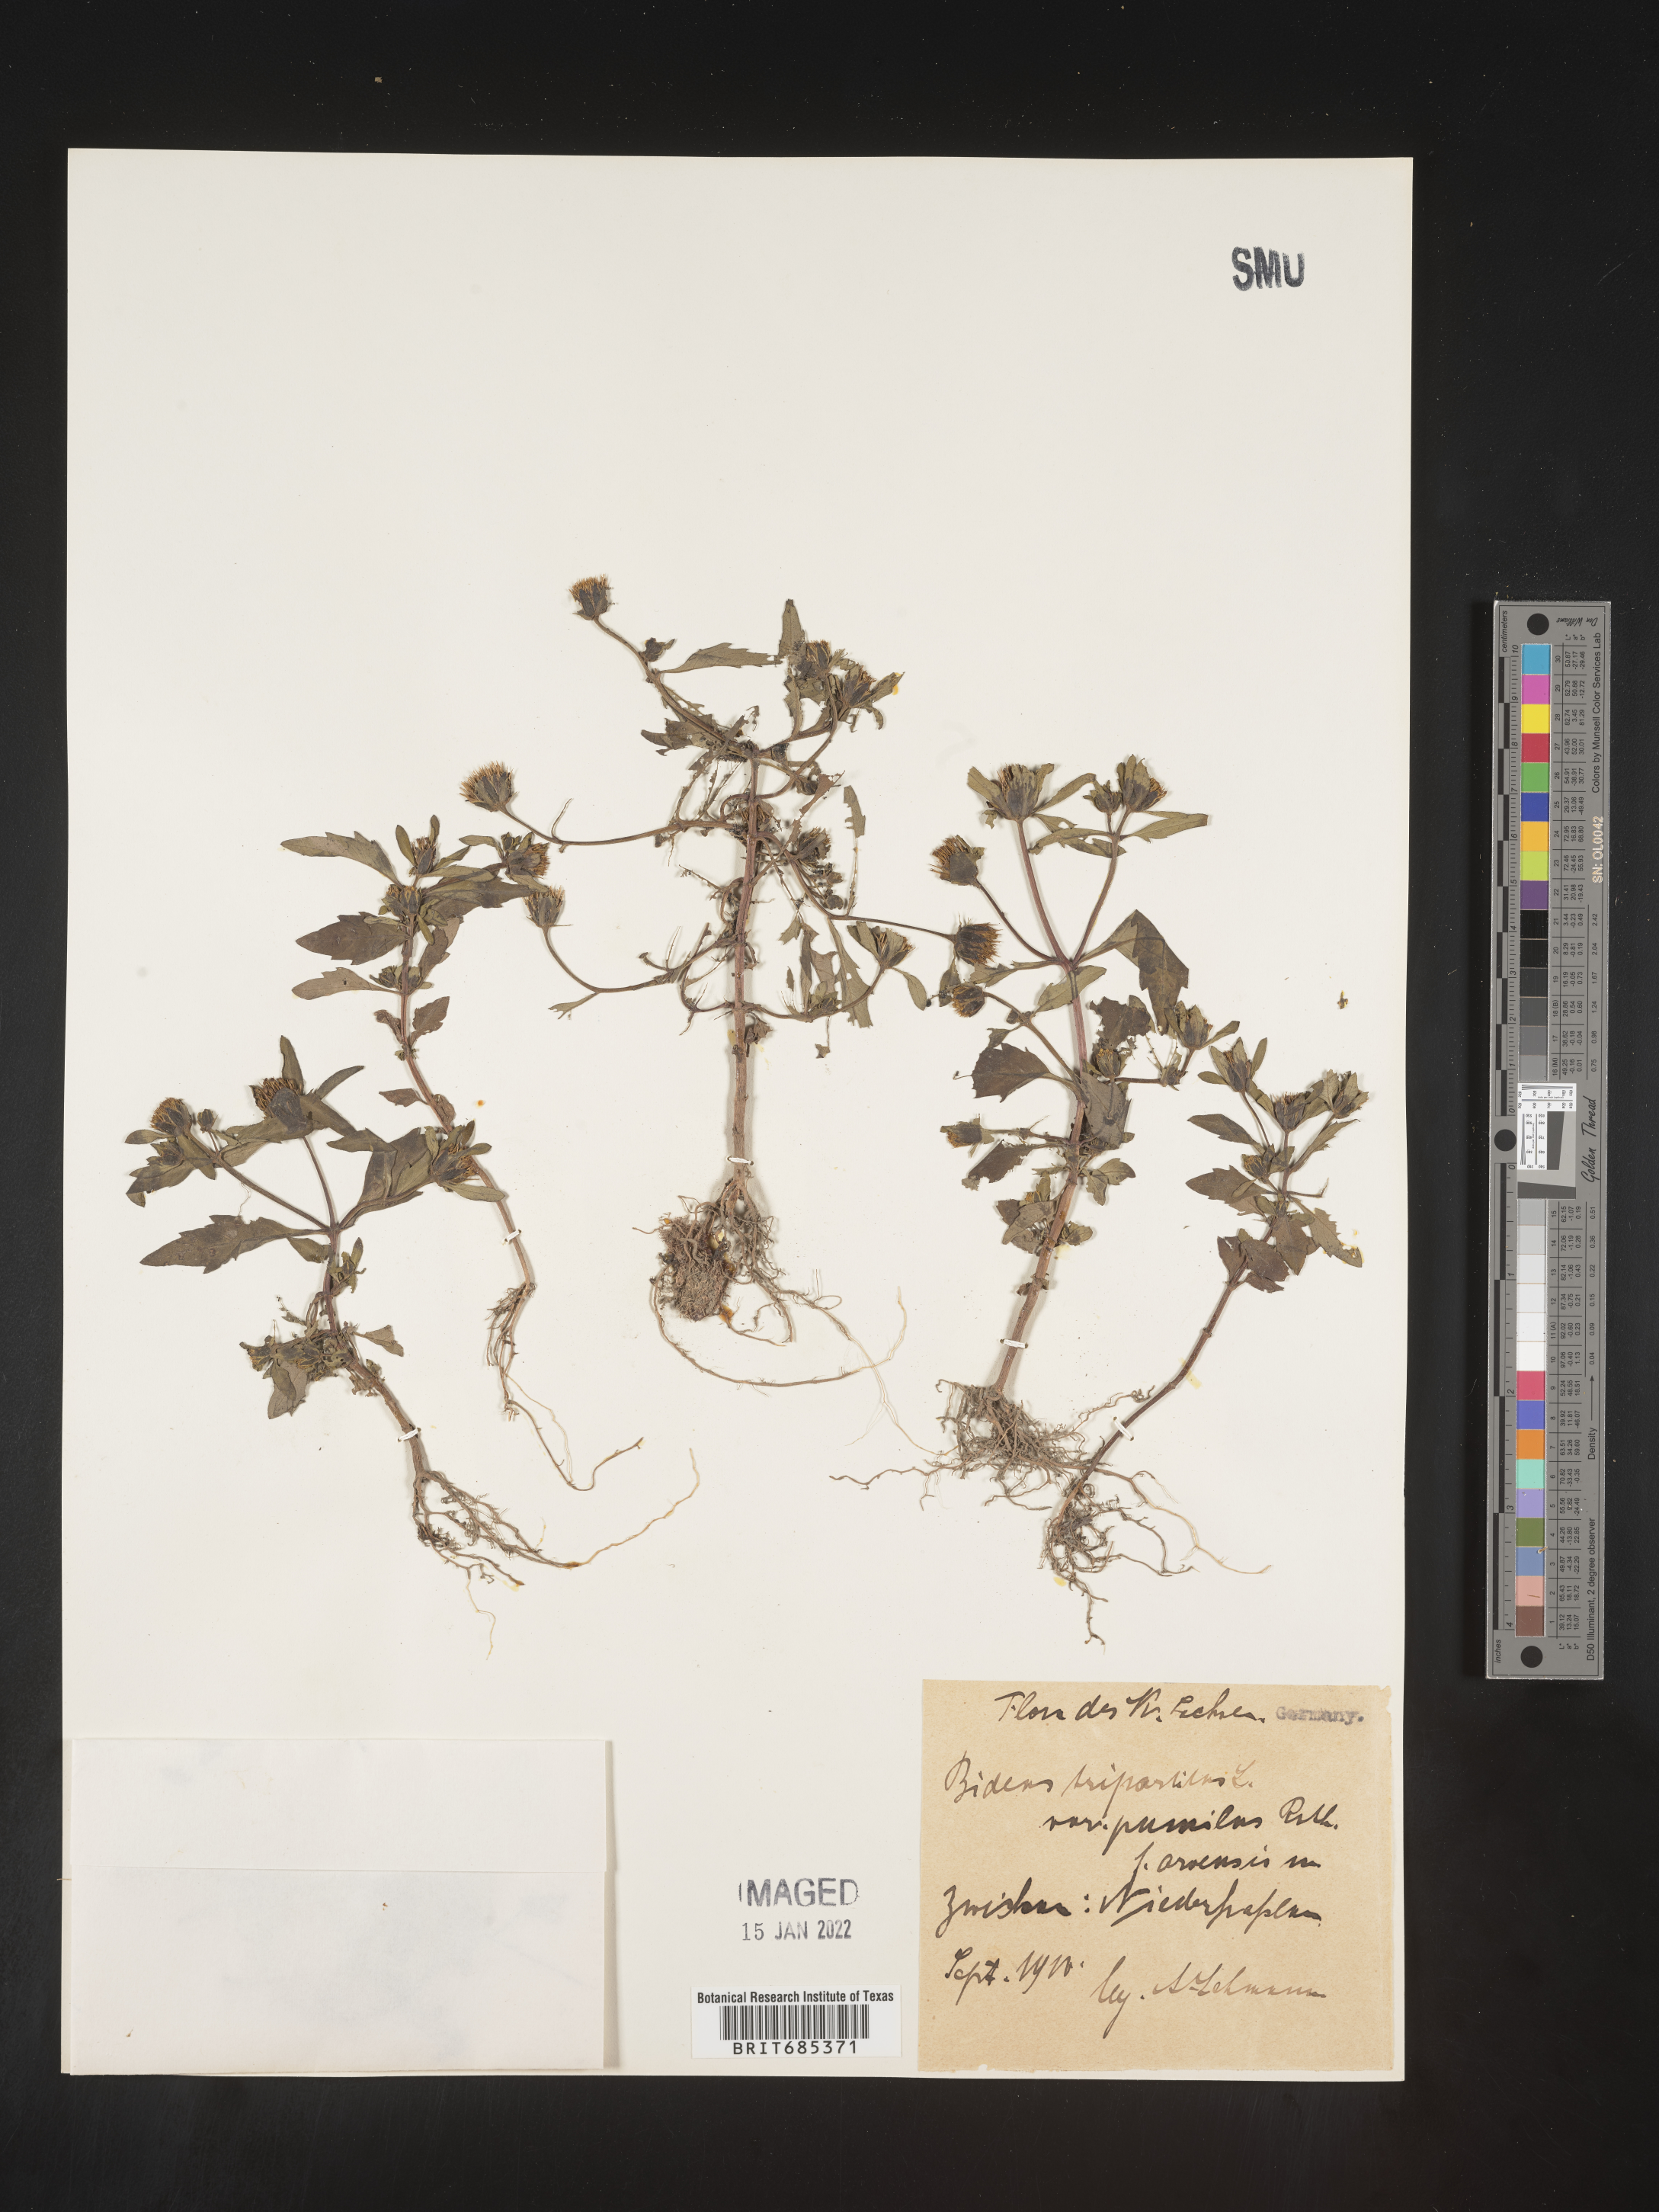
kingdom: Plantae
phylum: Tracheophyta
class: Magnoliopsida
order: Asterales
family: Asteraceae
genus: Bidens
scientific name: Bidens
